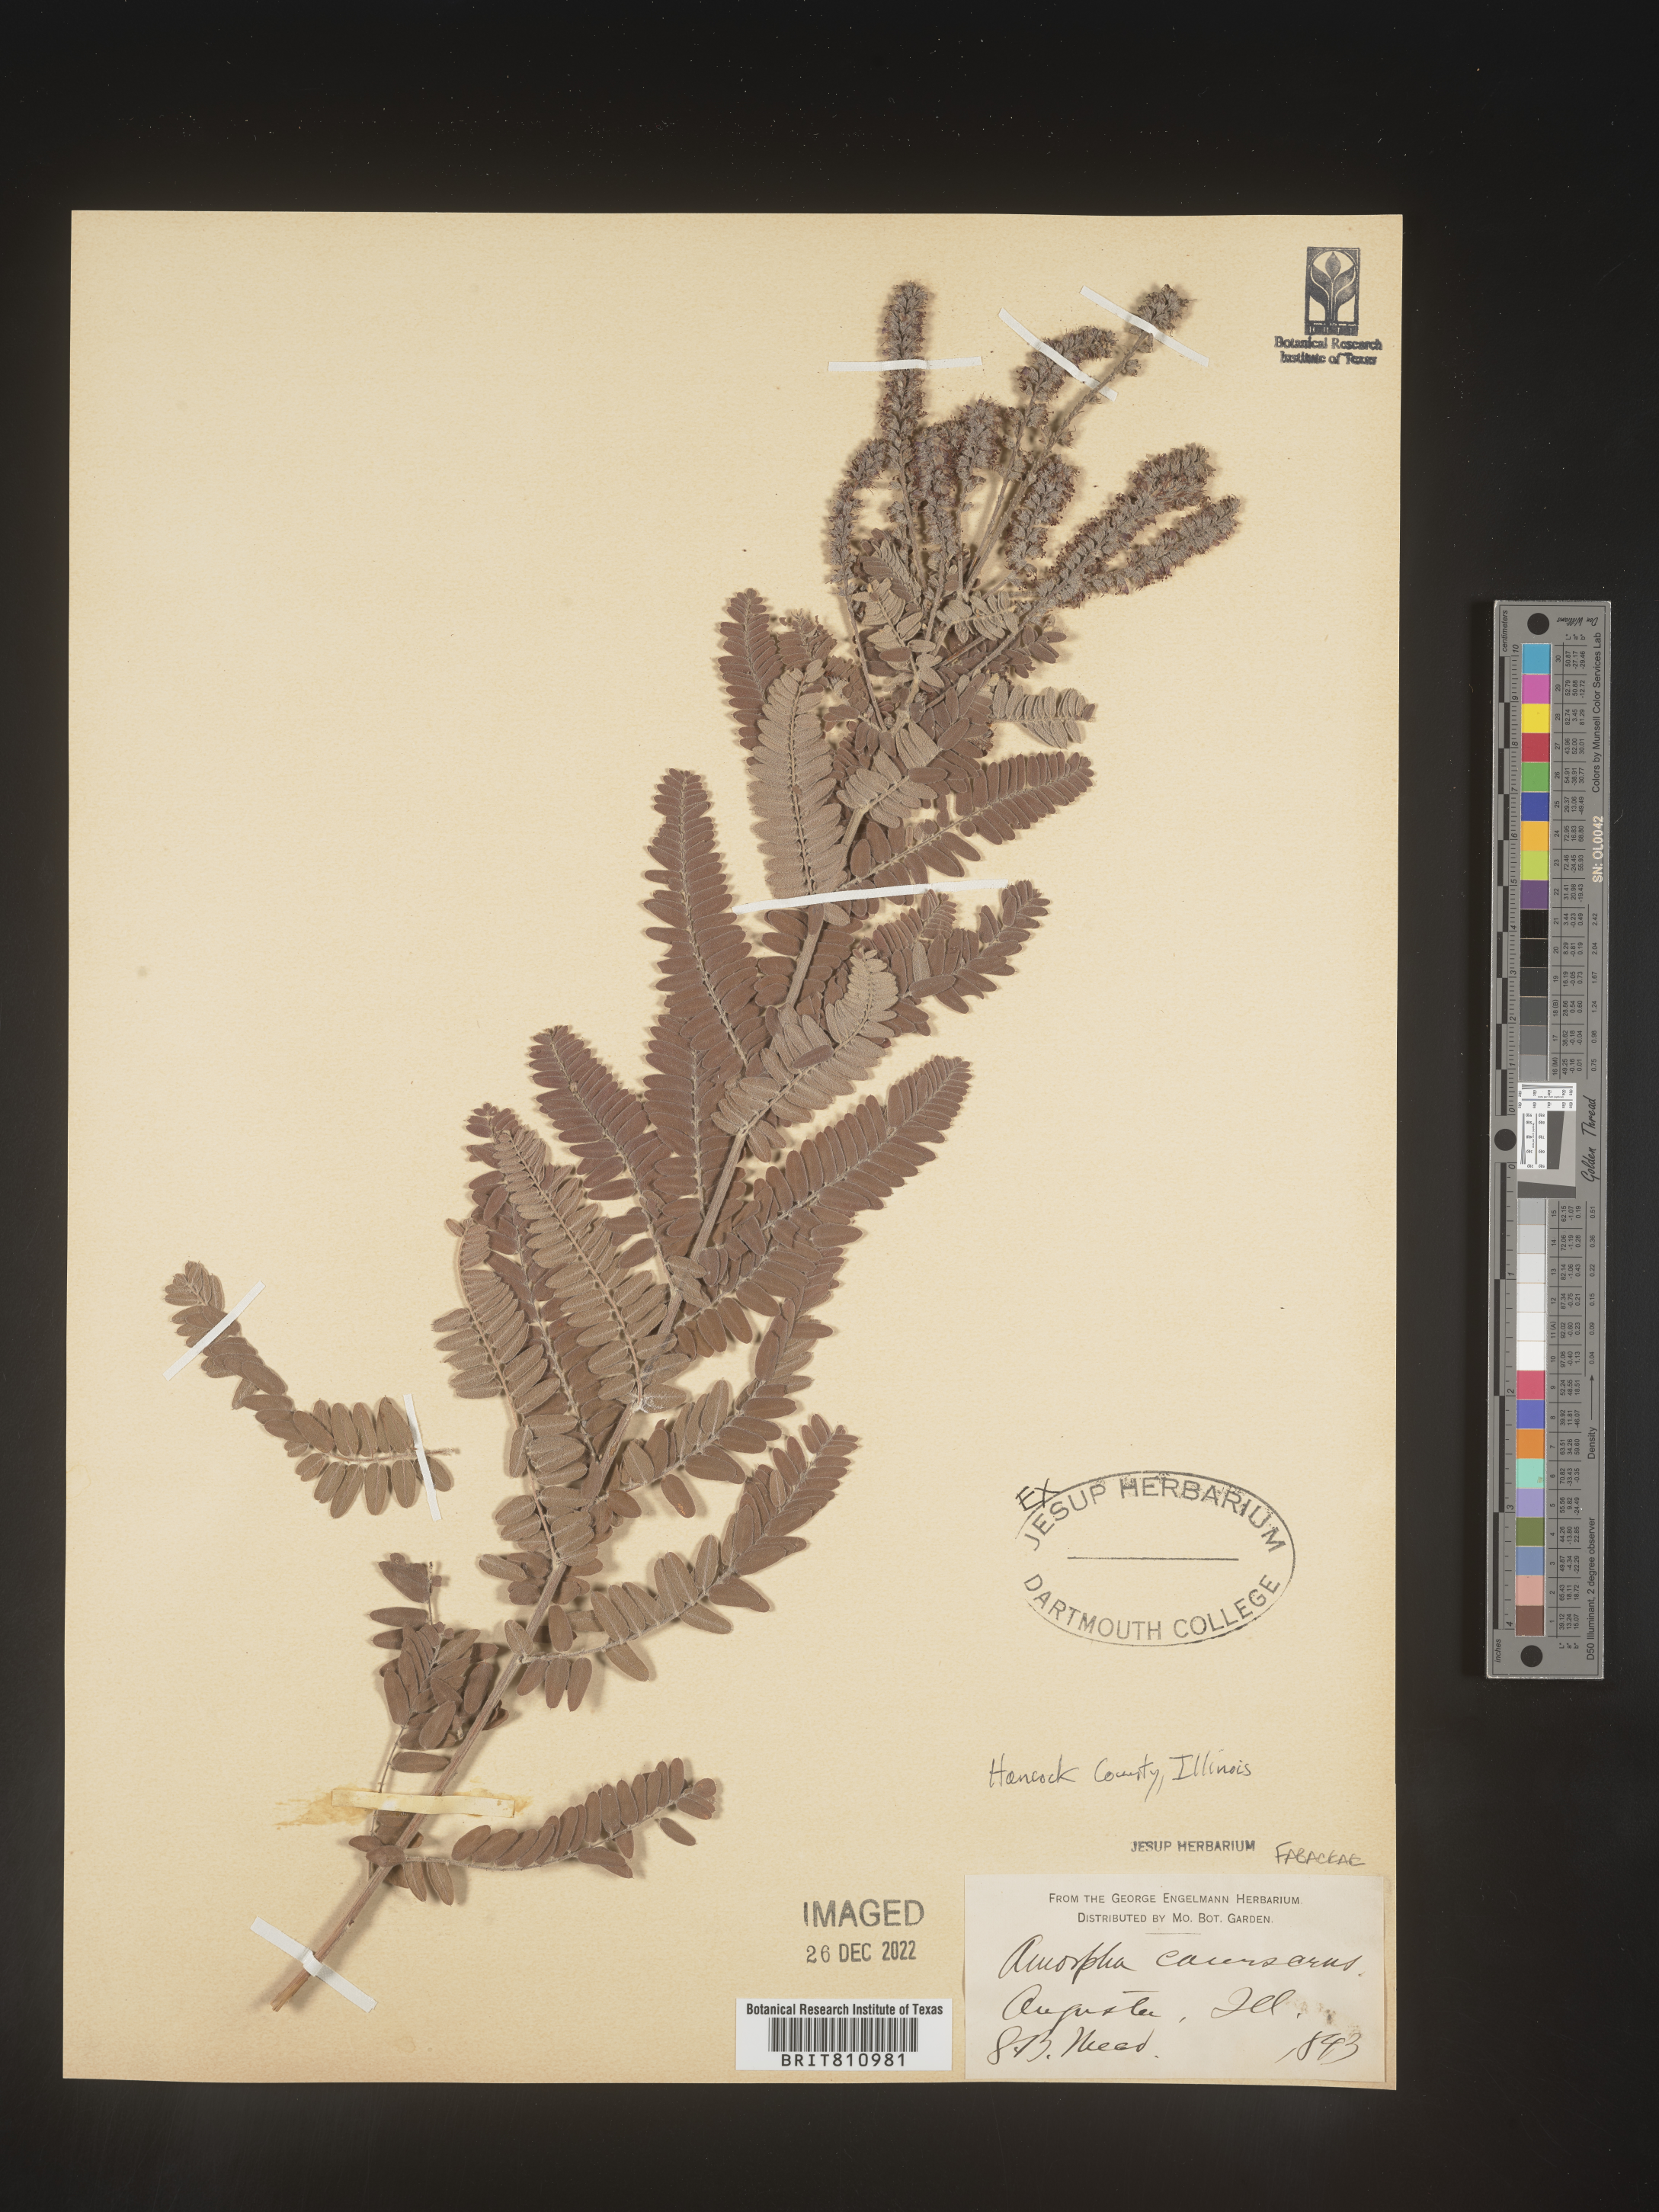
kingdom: Plantae
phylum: Tracheophyta
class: Magnoliopsida
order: Fabales
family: Fabaceae
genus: Amorpha
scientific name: Amorpha canescens
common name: Leadplant
